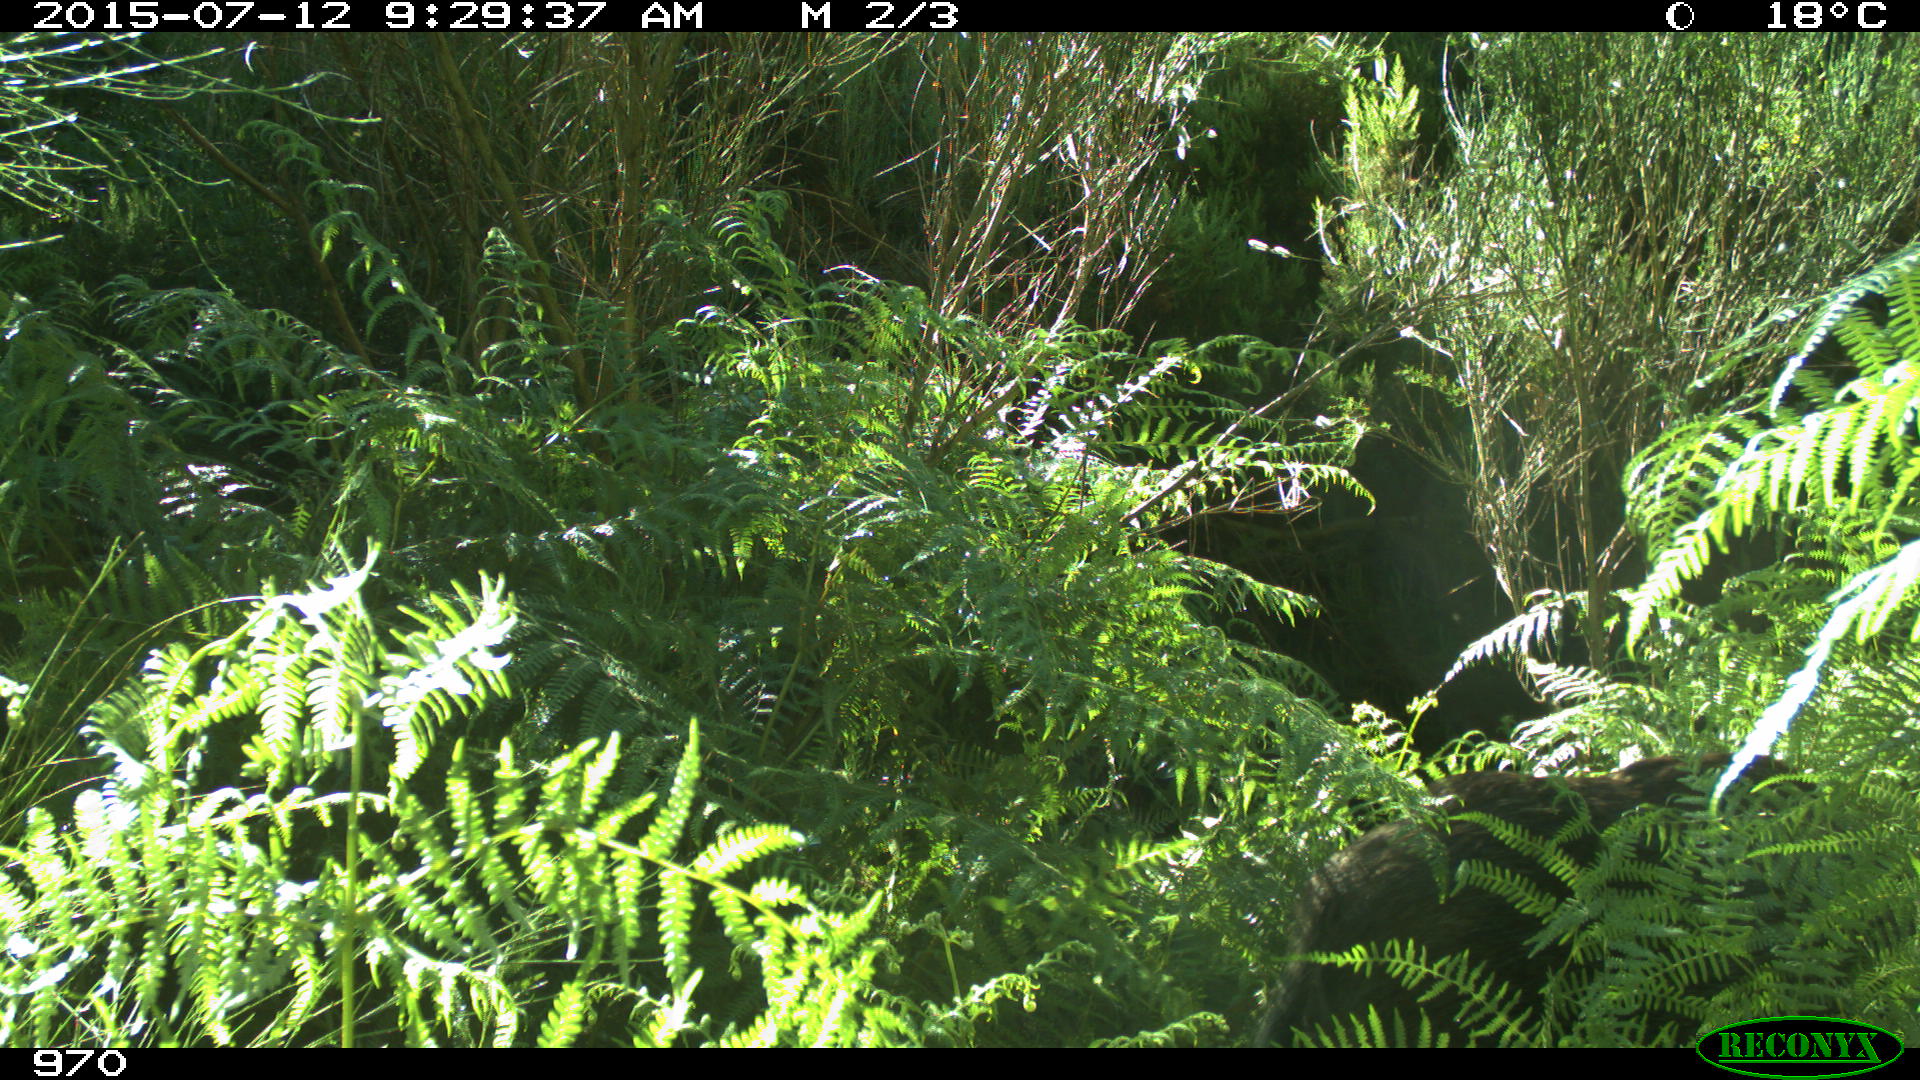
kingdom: Animalia
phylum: Chordata
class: Mammalia
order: Artiodactyla
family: Suidae
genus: Sus
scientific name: Sus scrofa
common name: Wild boar
